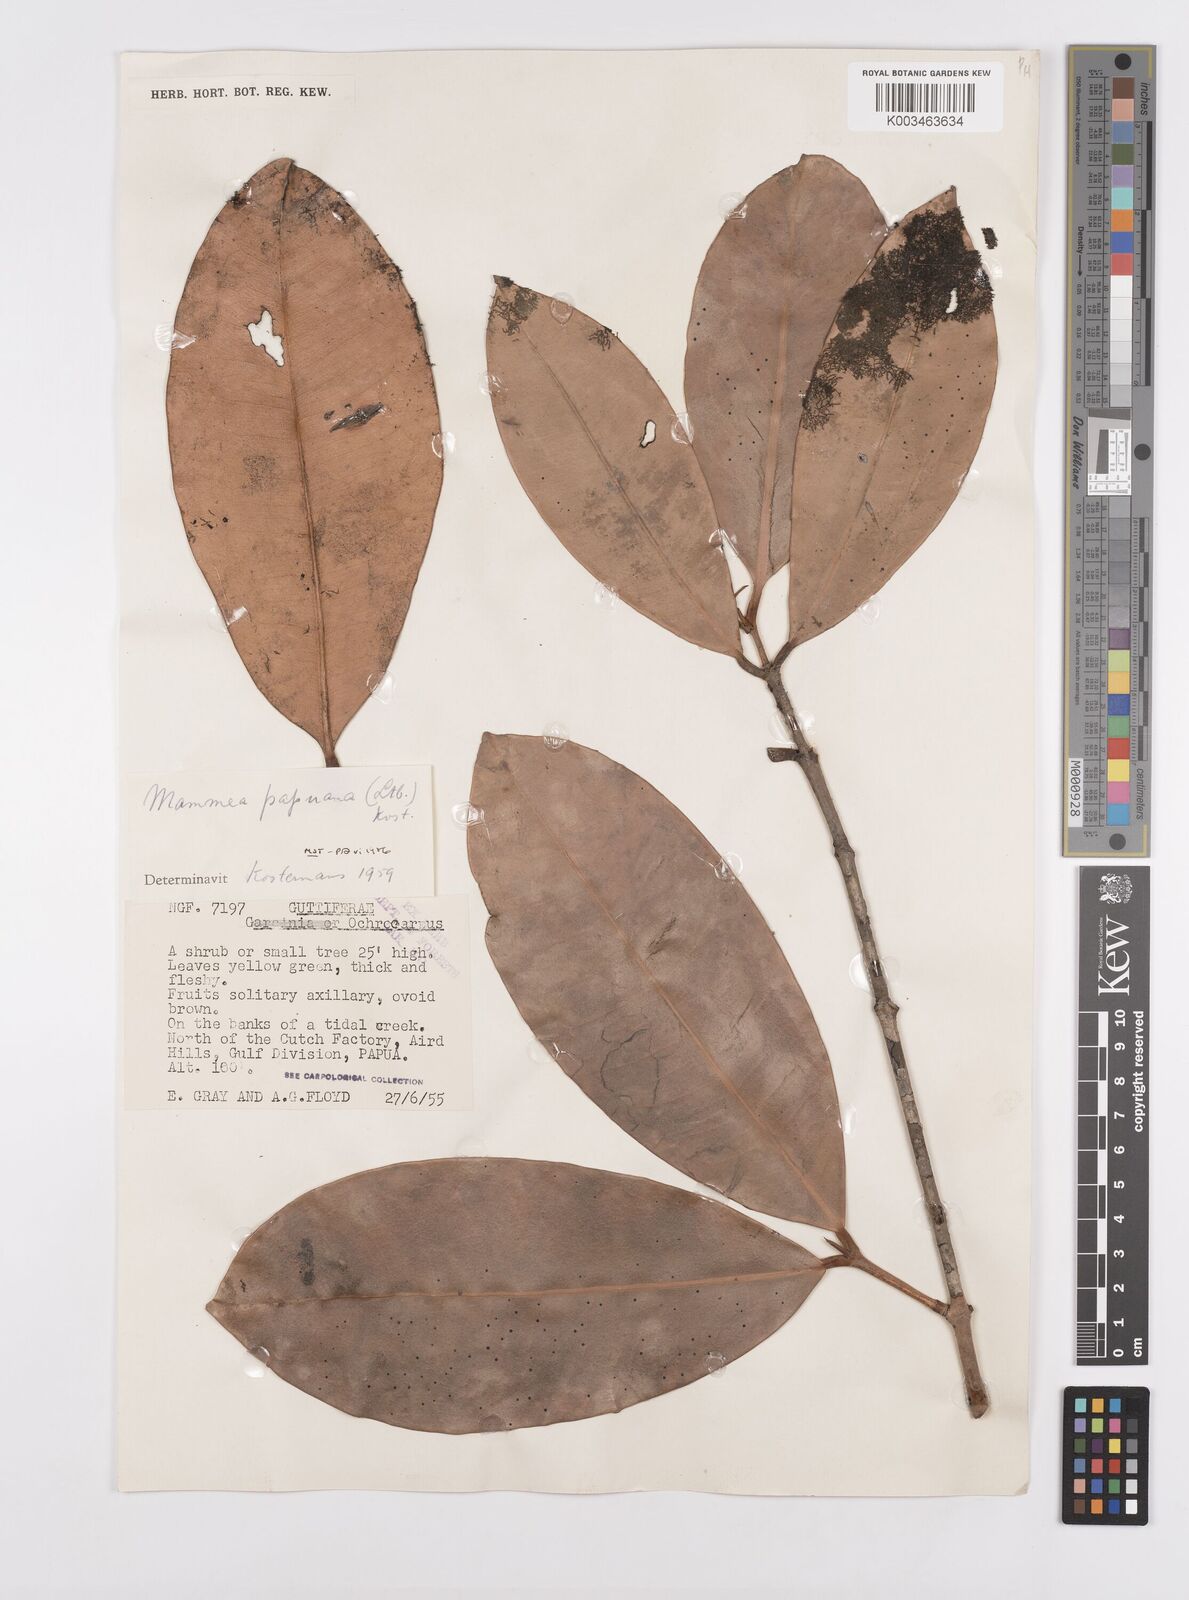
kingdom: Plantae
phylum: Tracheophyta
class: Magnoliopsida
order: Malpighiales
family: Calophyllaceae
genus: Mammea
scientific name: Mammea
